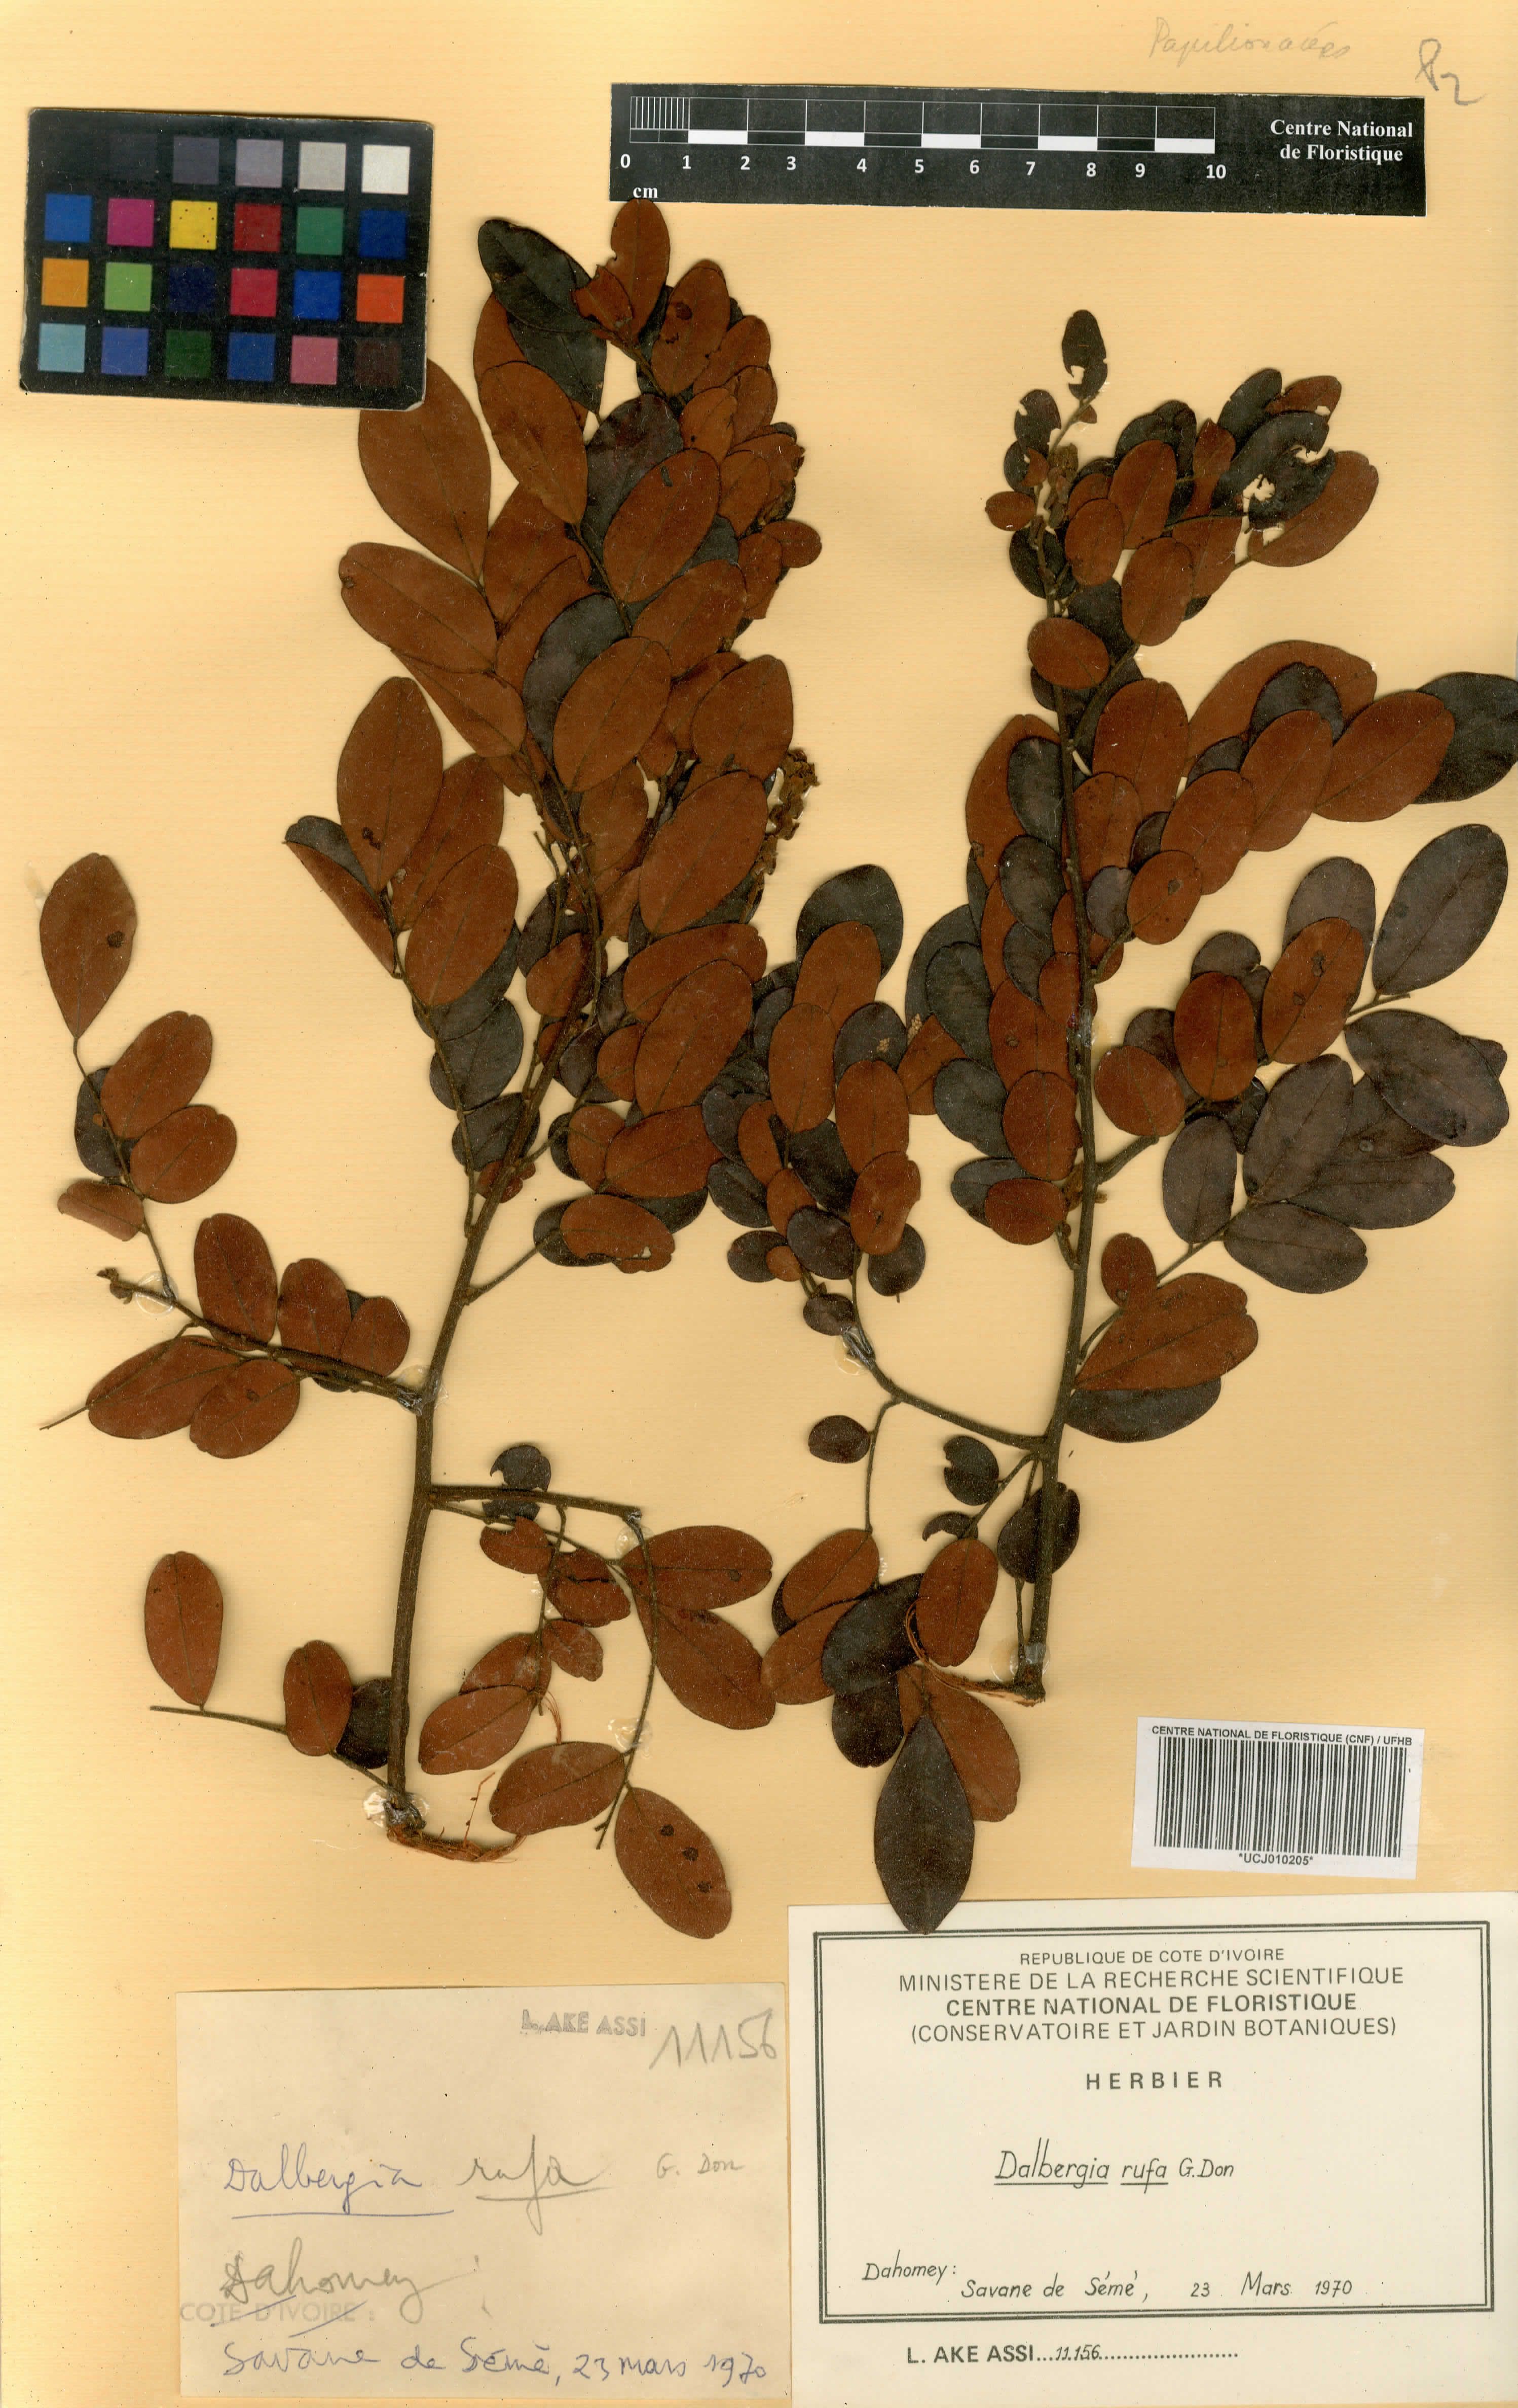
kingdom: Plantae
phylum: Tracheophyta
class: Magnoliopsida
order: Fabales
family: Fabaceae
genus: Dalbergia
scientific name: Dalbergia rufa
